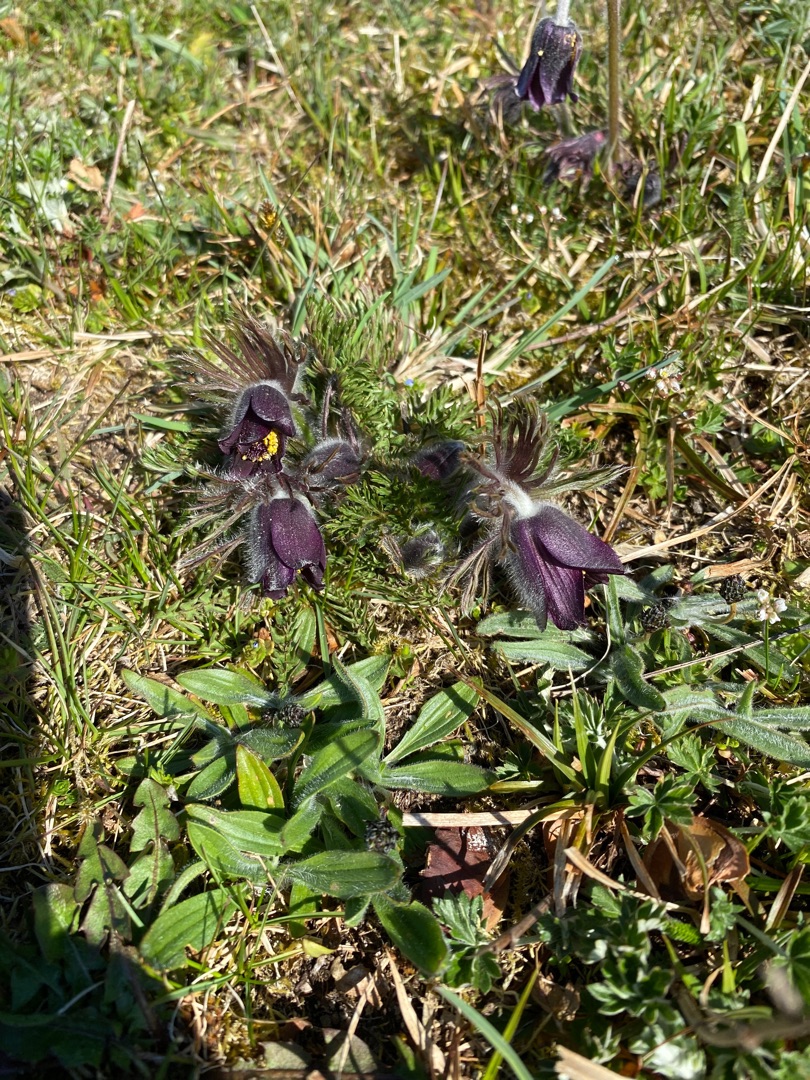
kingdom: Plantae
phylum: Tracheophyta
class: Magnoliopsida
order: Ranunculales
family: Ranunculaceae
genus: Pulsatilla
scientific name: Pulsatilla pratensis
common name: Nikkende kobjælde
